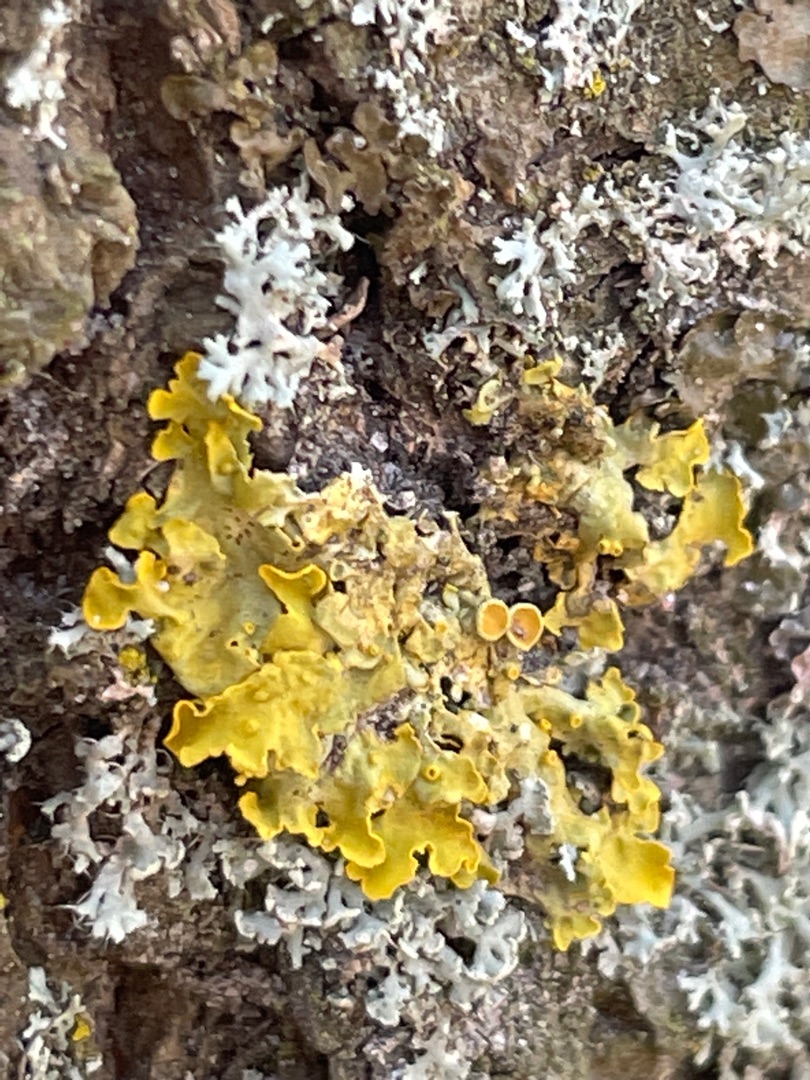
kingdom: Fungi
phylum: Ascomycota
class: Lecanoromycetes
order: Teloschistales
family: Teloschistaceae
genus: Xanthoria
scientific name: Xanthoria parietina
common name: Almindelig væggelav
